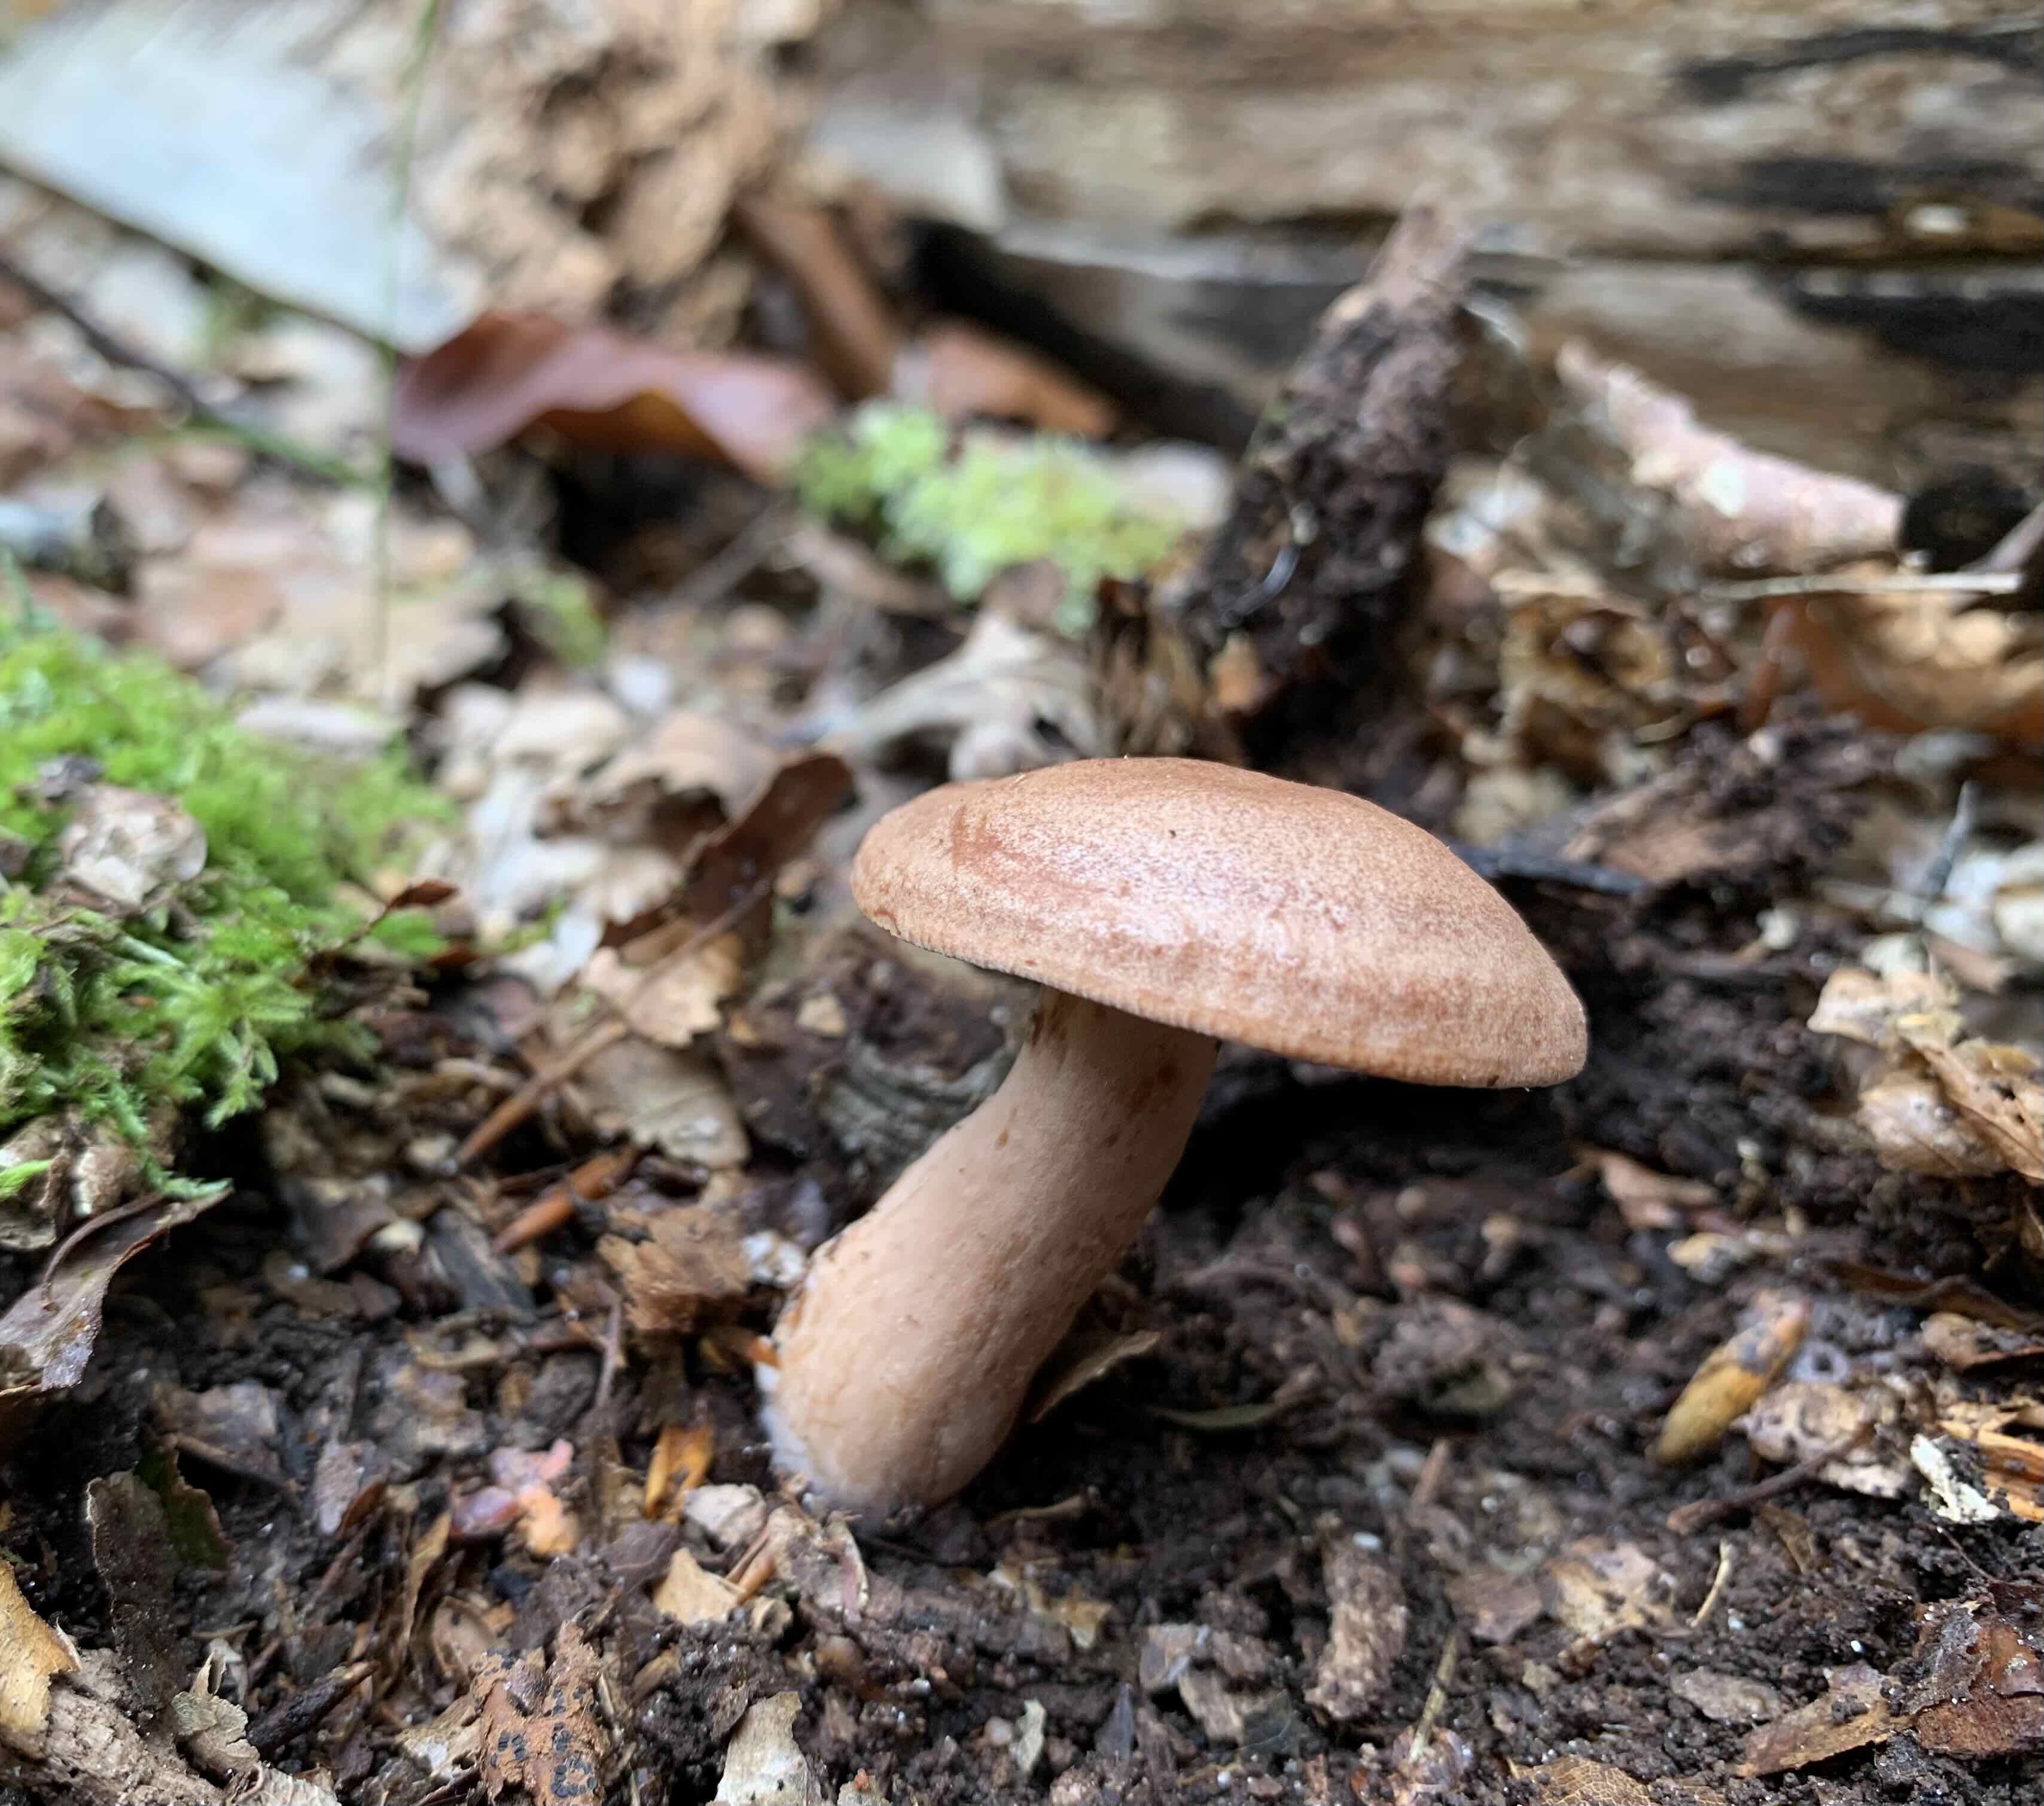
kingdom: Fungi
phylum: Basidiomycota
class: Agaricomycetes
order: Russulales
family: Russulaceae
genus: Lactarius
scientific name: Lactarius quietus
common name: ege-mælkehat
